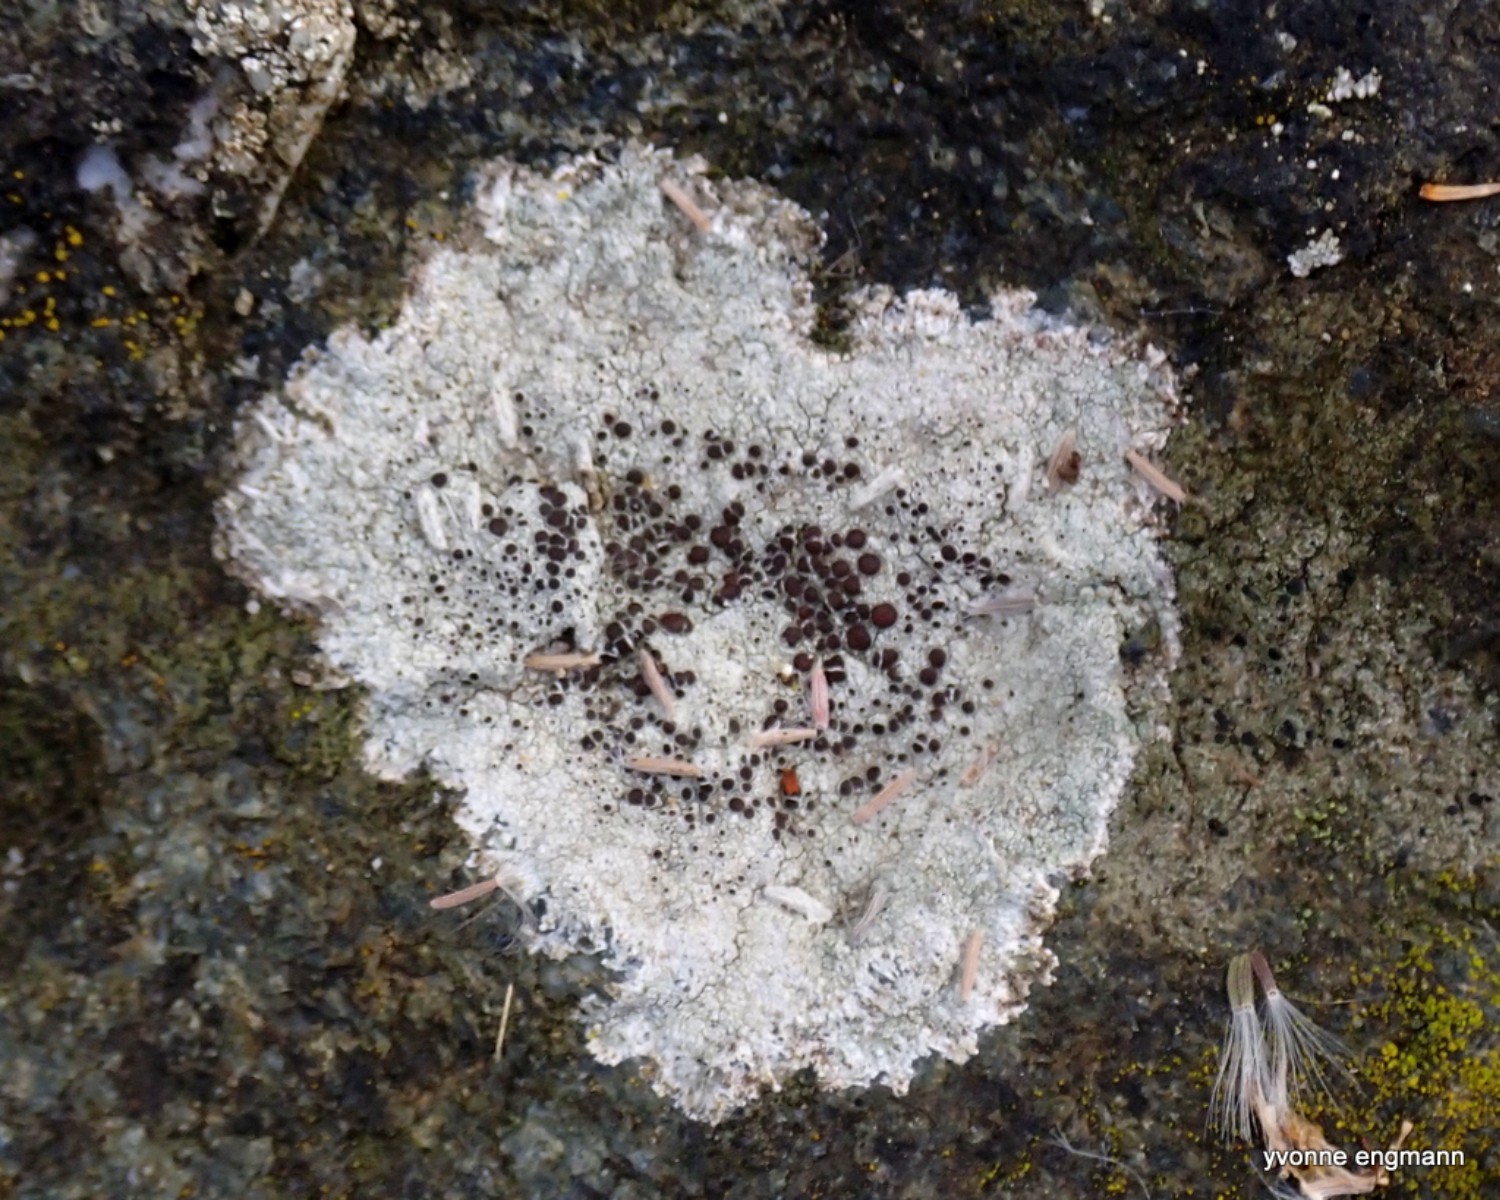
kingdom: Fungi
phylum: Ascomycota
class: Lecanoromycetes
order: Lecanorales
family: Lecanoraceae
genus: Lecanora
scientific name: Lecanora campestris
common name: mur-kantskivelav
